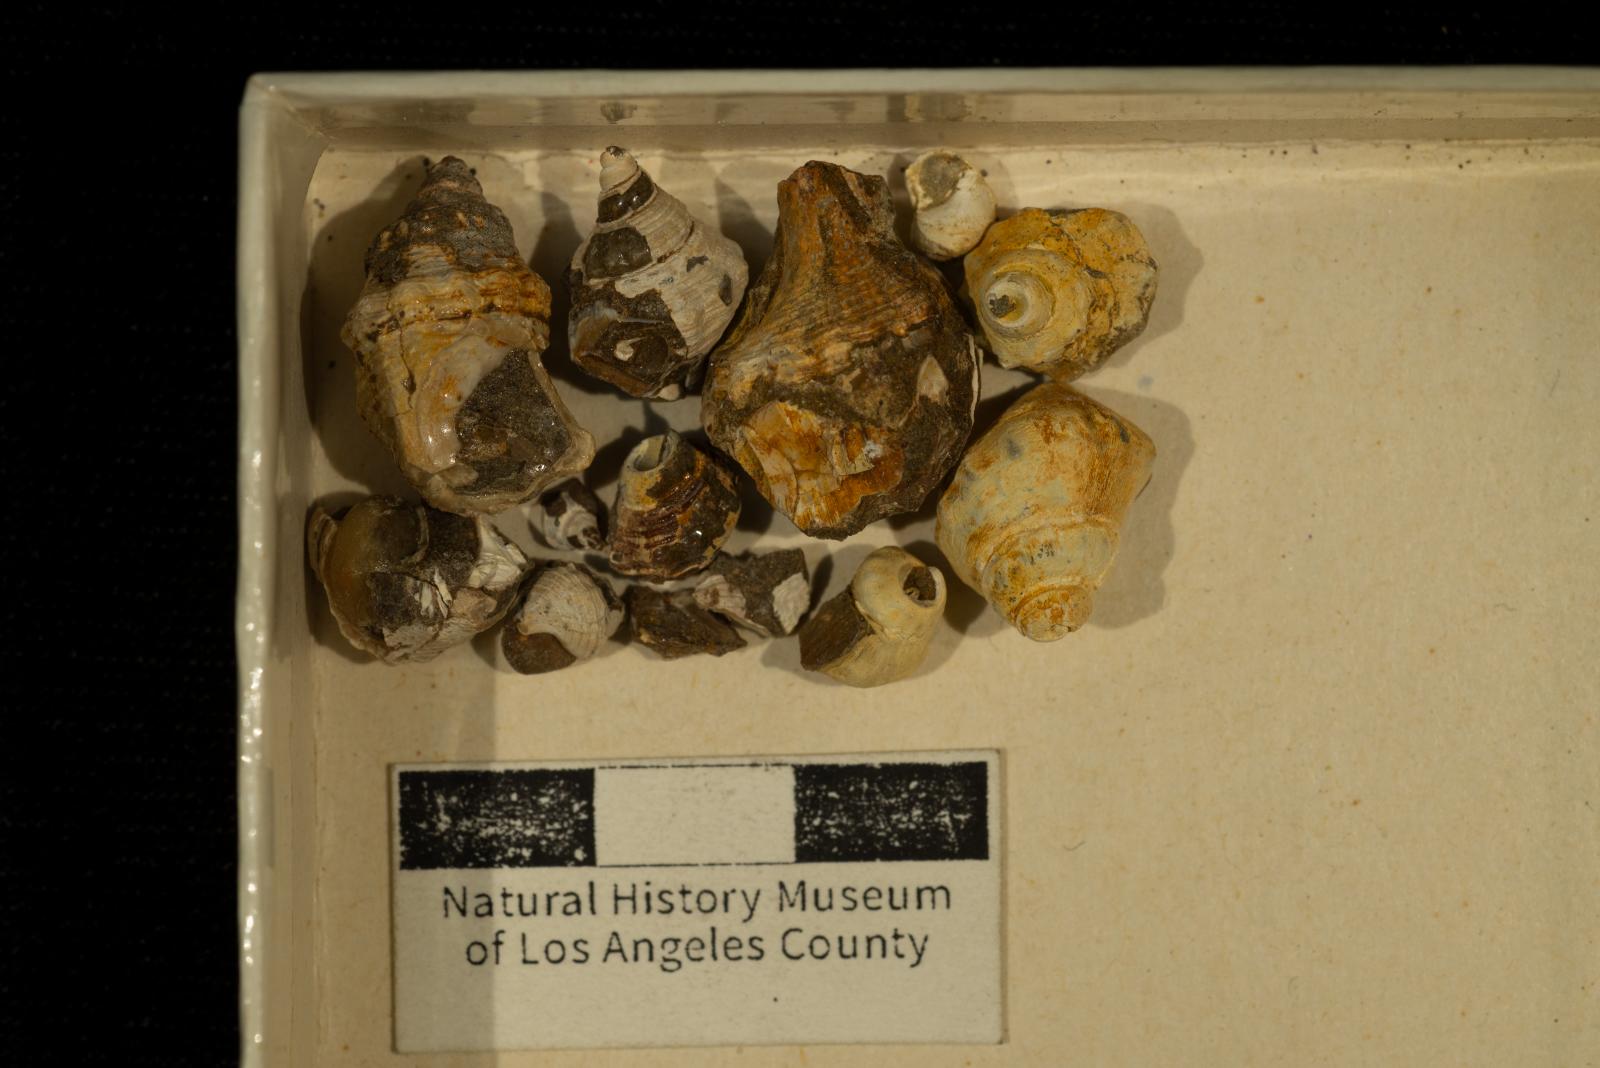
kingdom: Animalia
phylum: Mollusca
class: Gastropoda
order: Neogastropoda
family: Perissityidae
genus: Forsia
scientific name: Forsia lorda
